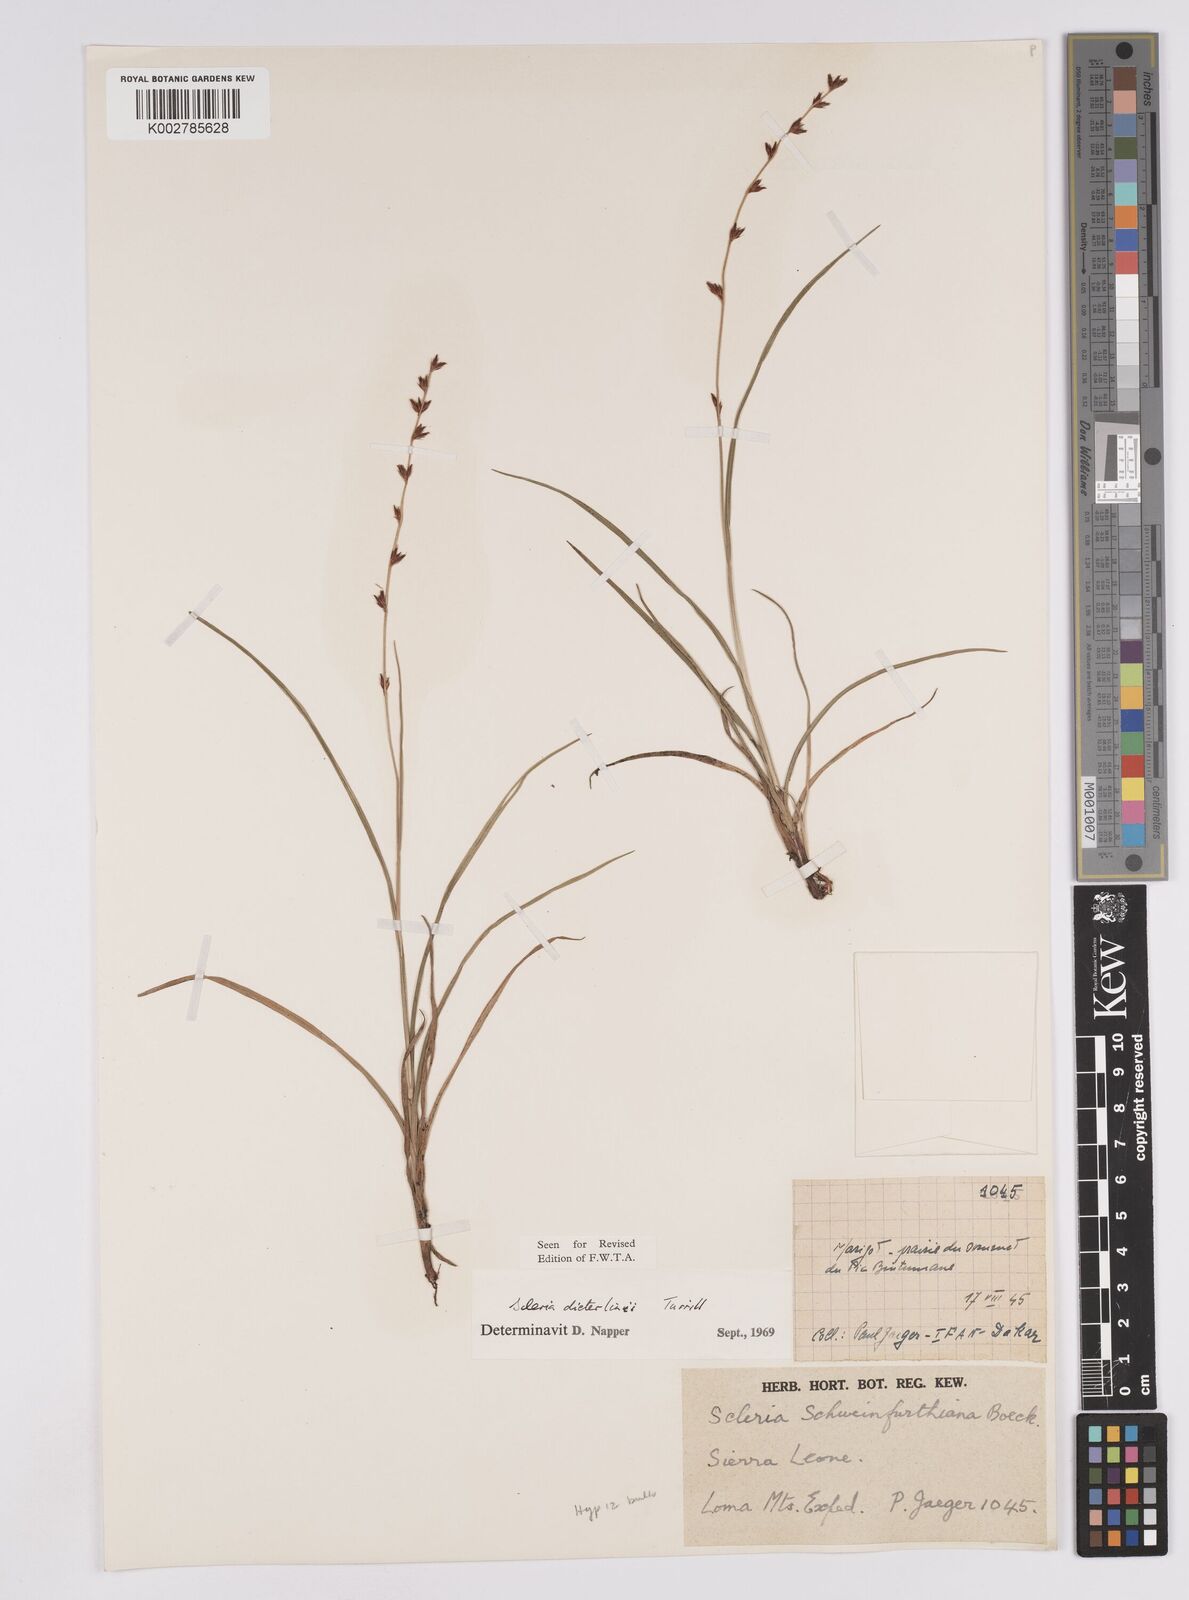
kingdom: Plantae
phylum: Tracheophyta
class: Liliopsida
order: Poales
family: Cyperaceae
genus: Scleria
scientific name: Scleria flexuosa
